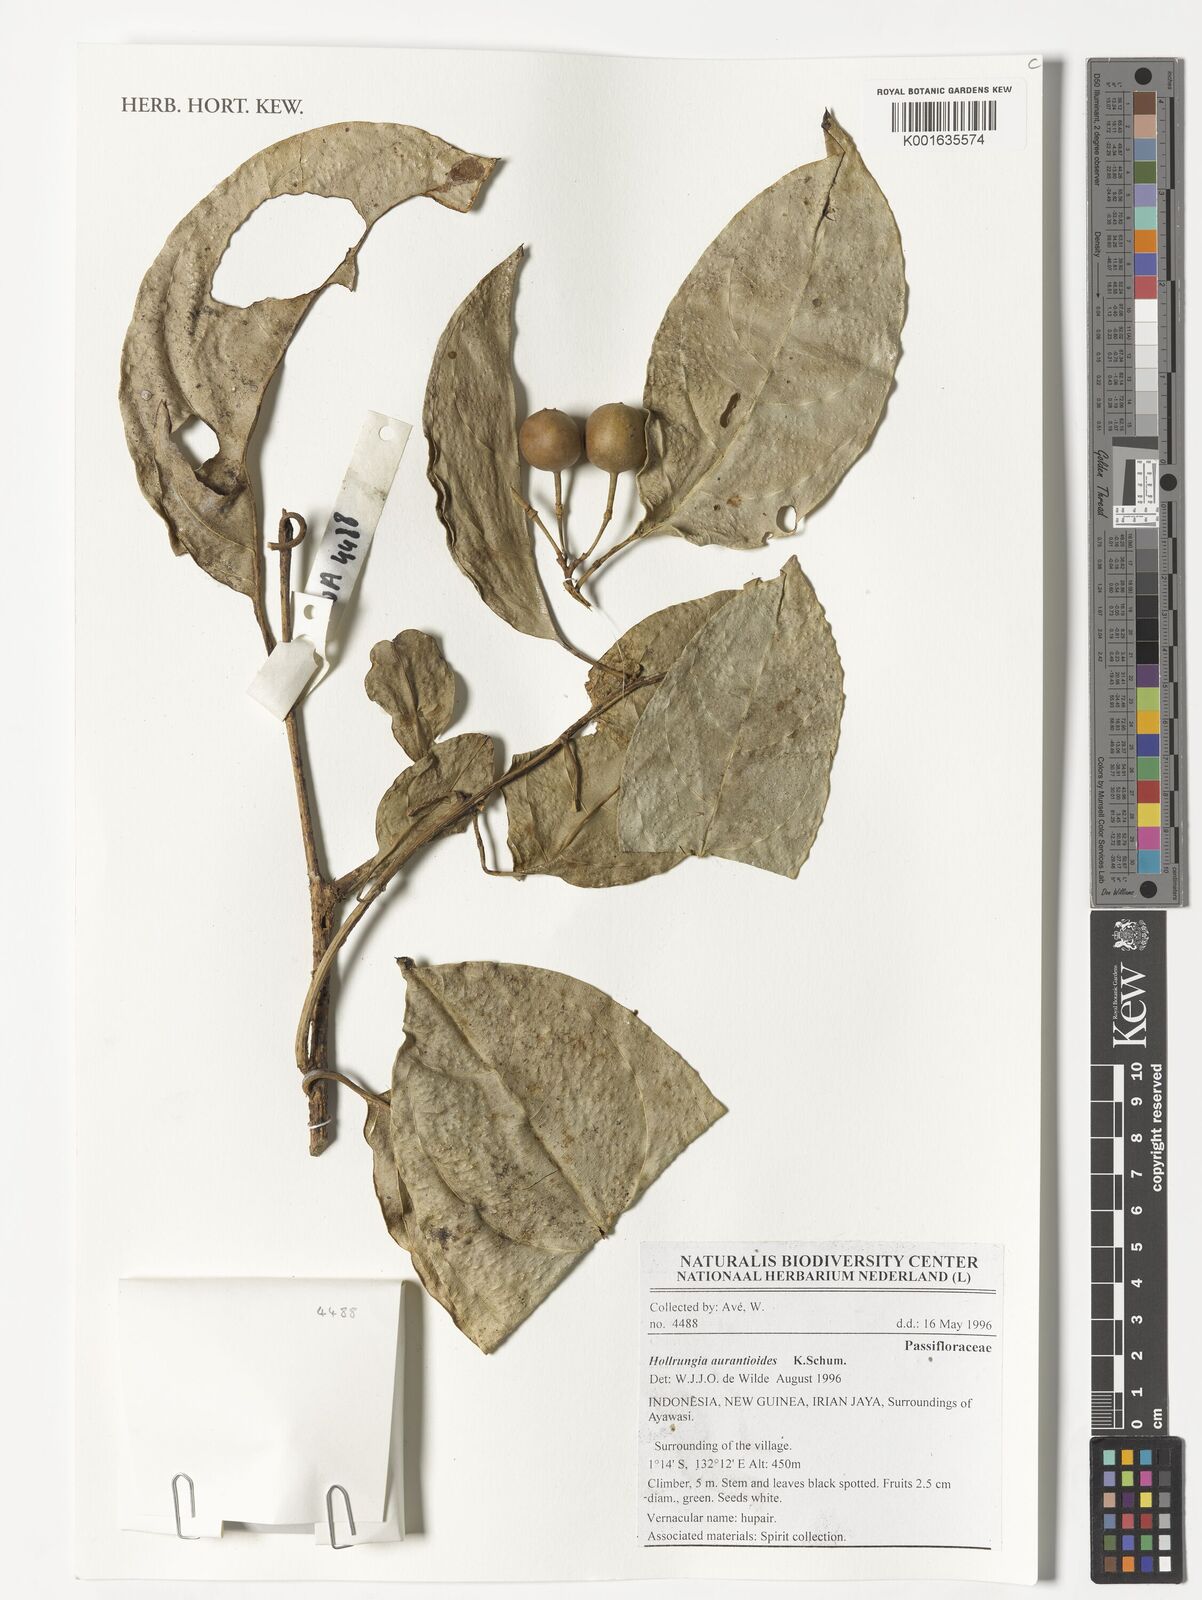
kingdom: Plantae
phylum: Tracheophyta
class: Magnoliopsida
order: Malpighiales
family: Passifloraceae
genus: Passiflora
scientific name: Passiflora aurantioides
